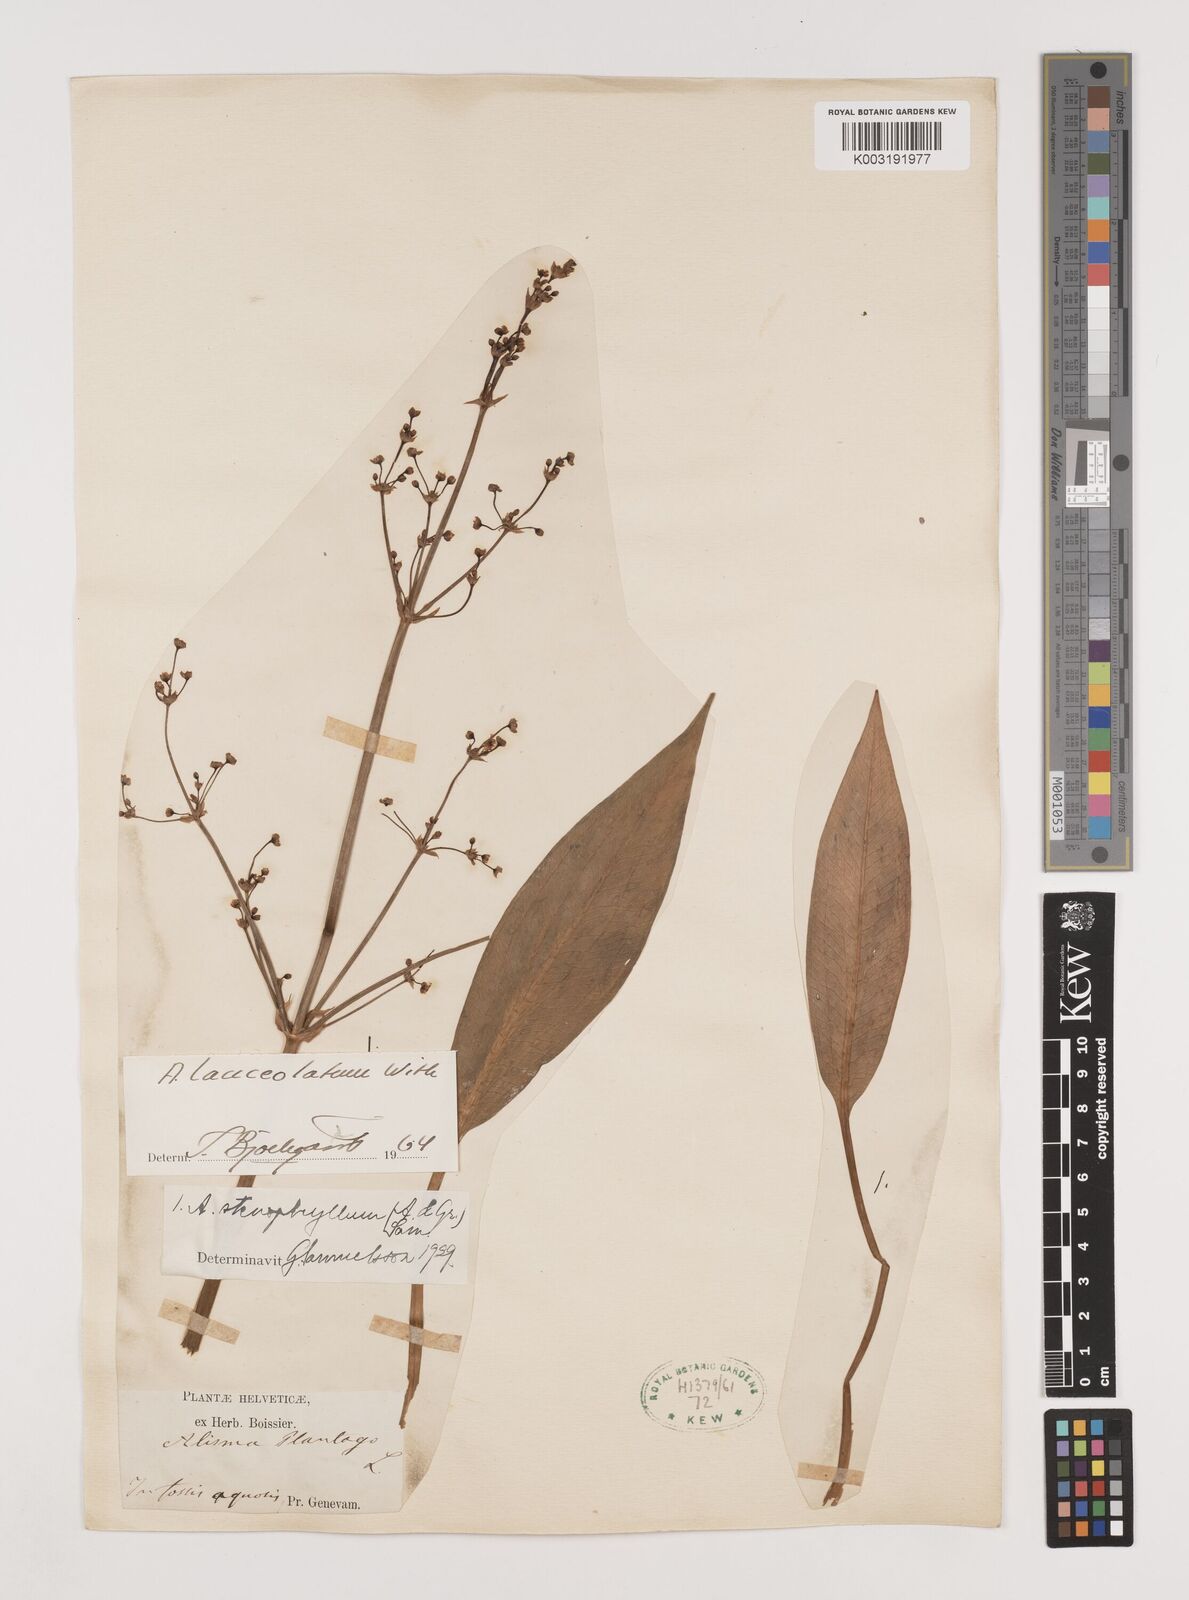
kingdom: Plantae
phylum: Tracheophyta
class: Liliopsida
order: Alismatales
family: Alismataceae
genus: Alisma
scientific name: Alisma lanceolatum
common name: Narrow-leaved water-plantain
